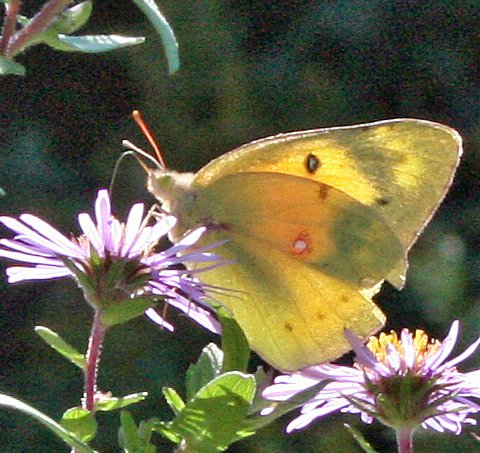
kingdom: Animalia
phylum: Arthropoda
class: Insecta
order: Lepidoptera
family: Pieridae
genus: Colias
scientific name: Colias eurytheme
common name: Orange Sulphur
